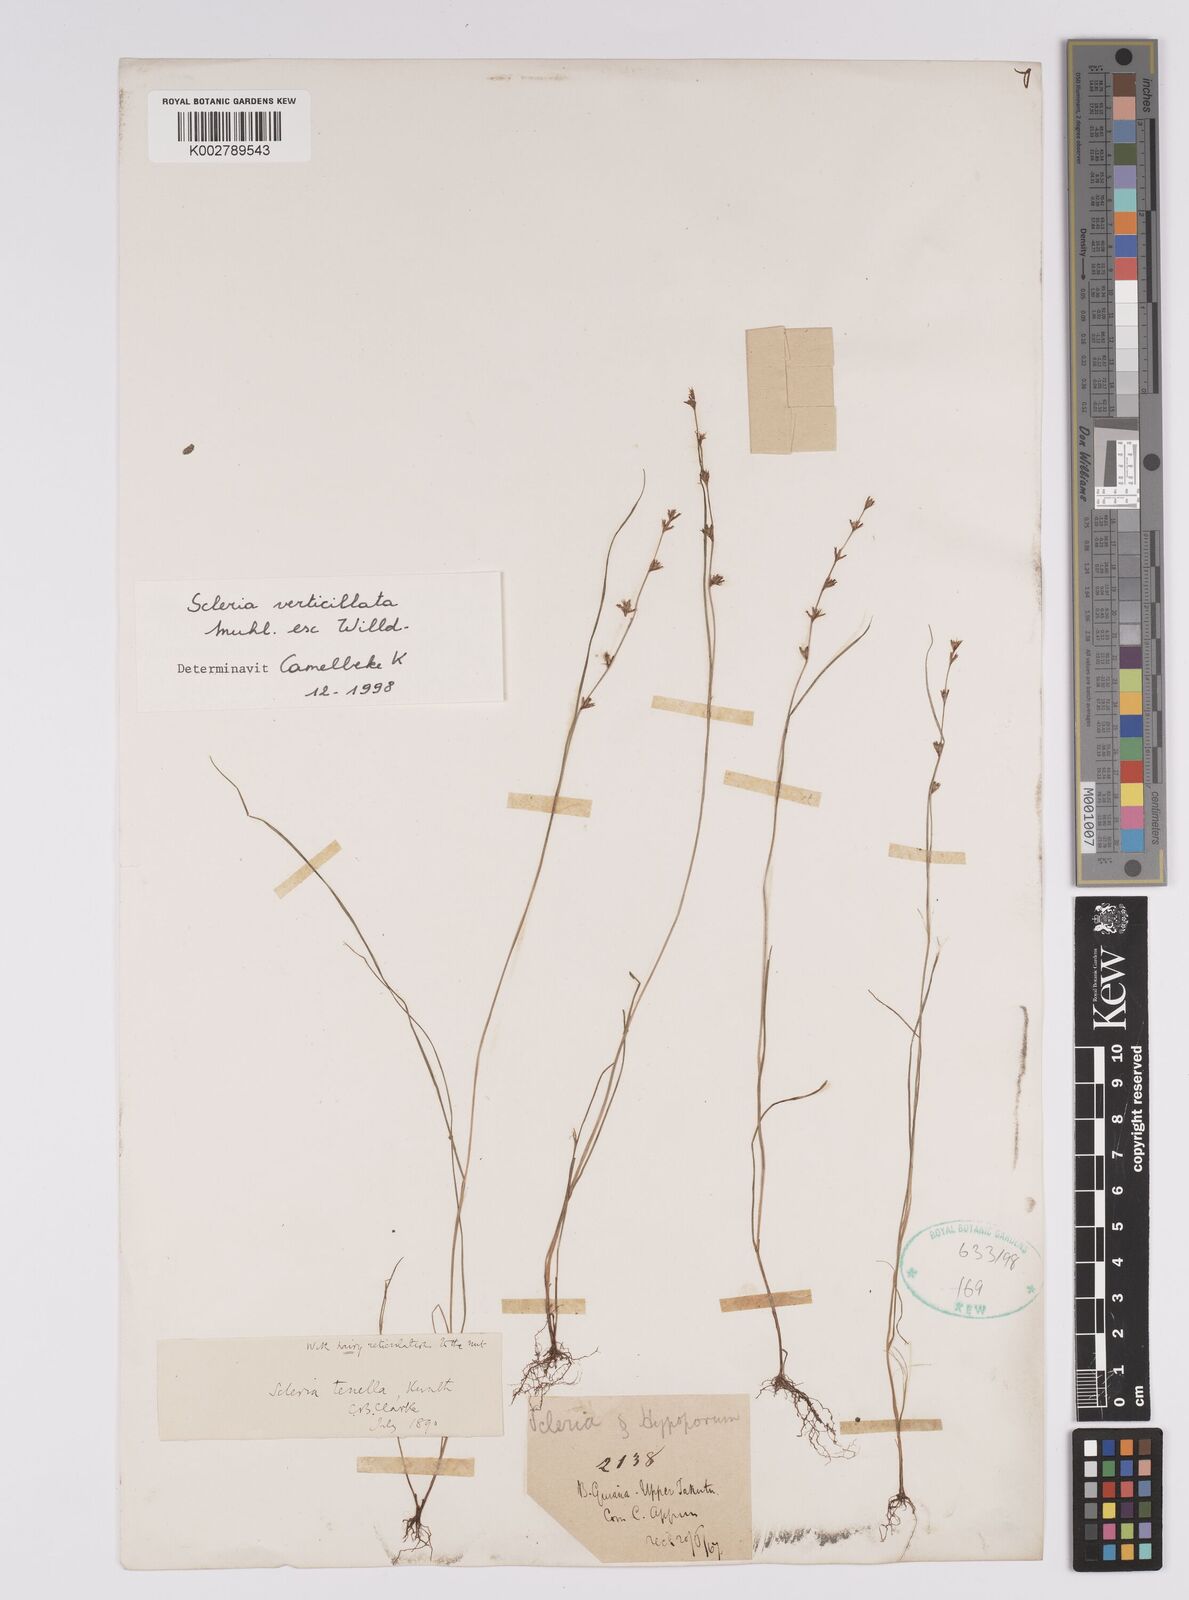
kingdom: Plantae
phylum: Tracheophyta
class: Liliopsida
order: Poales
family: Cyperaceae
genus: Scleria
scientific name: Scleria distans
